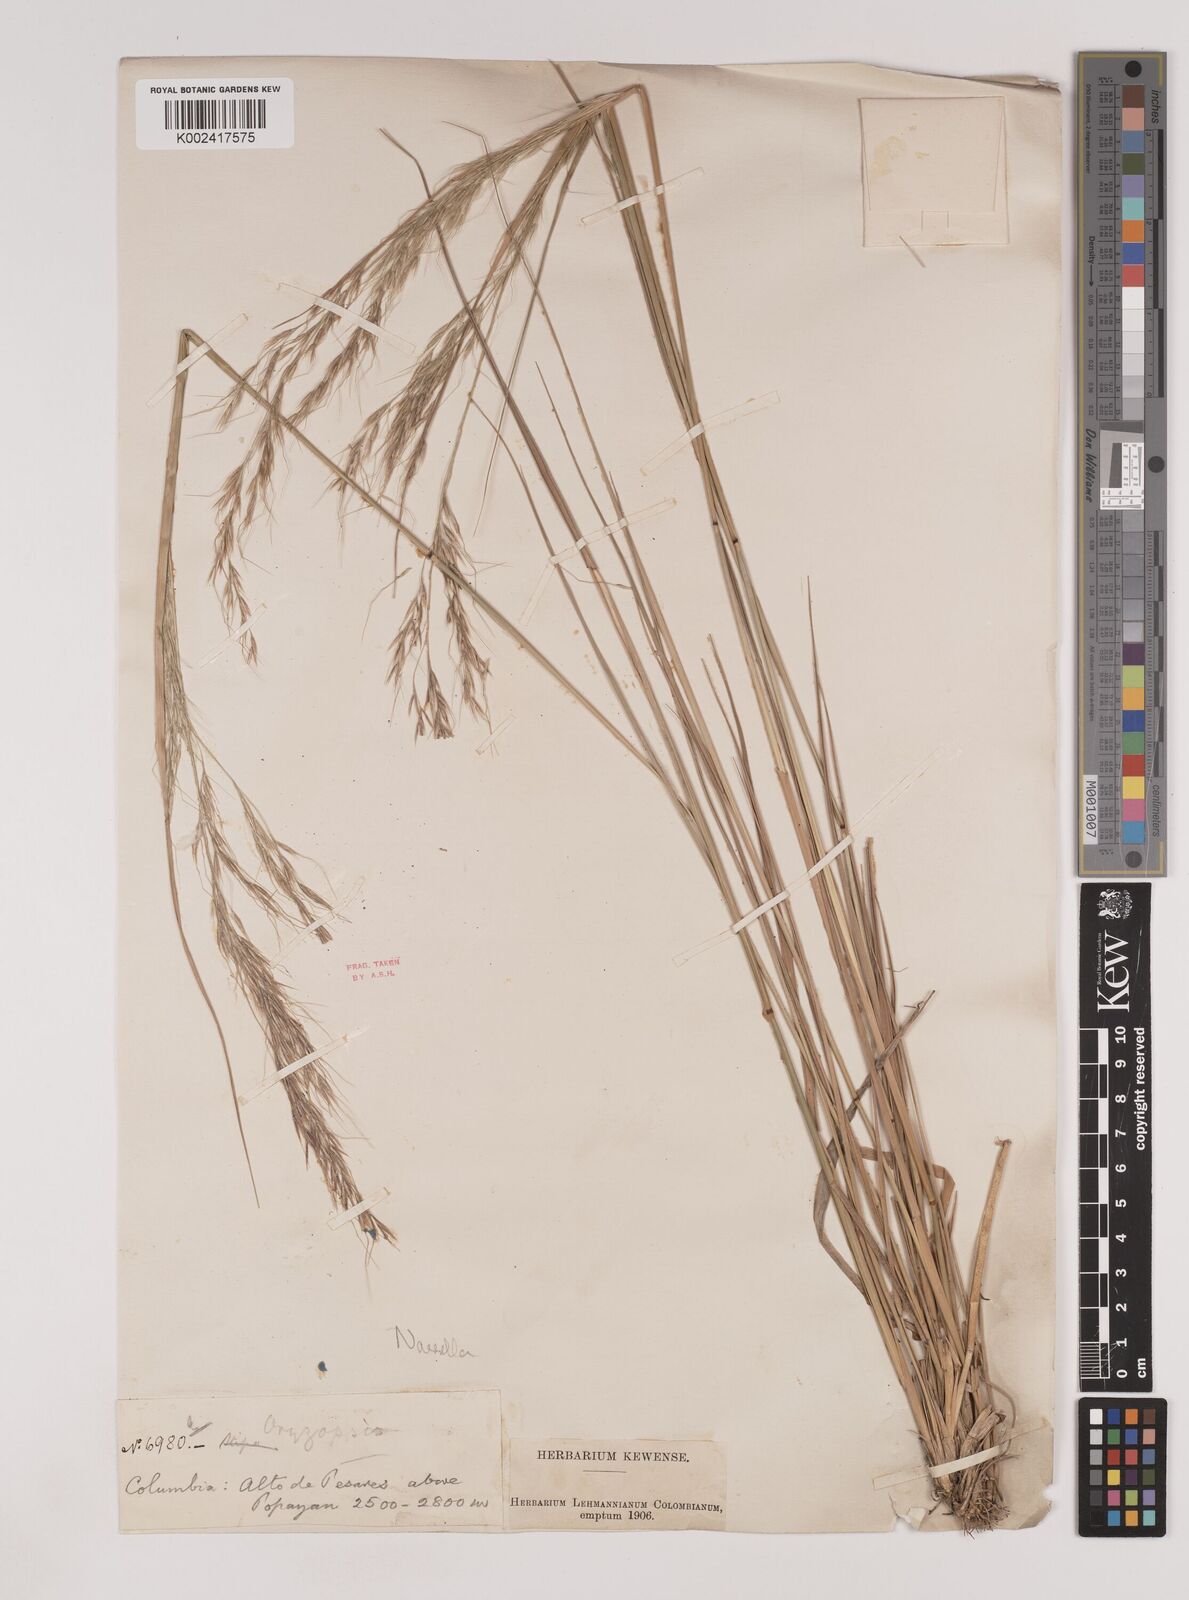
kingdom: Plantae
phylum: Tracheophyta
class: Liliopsida
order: Poales
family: Poaceae
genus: Nassella
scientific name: Nassella
